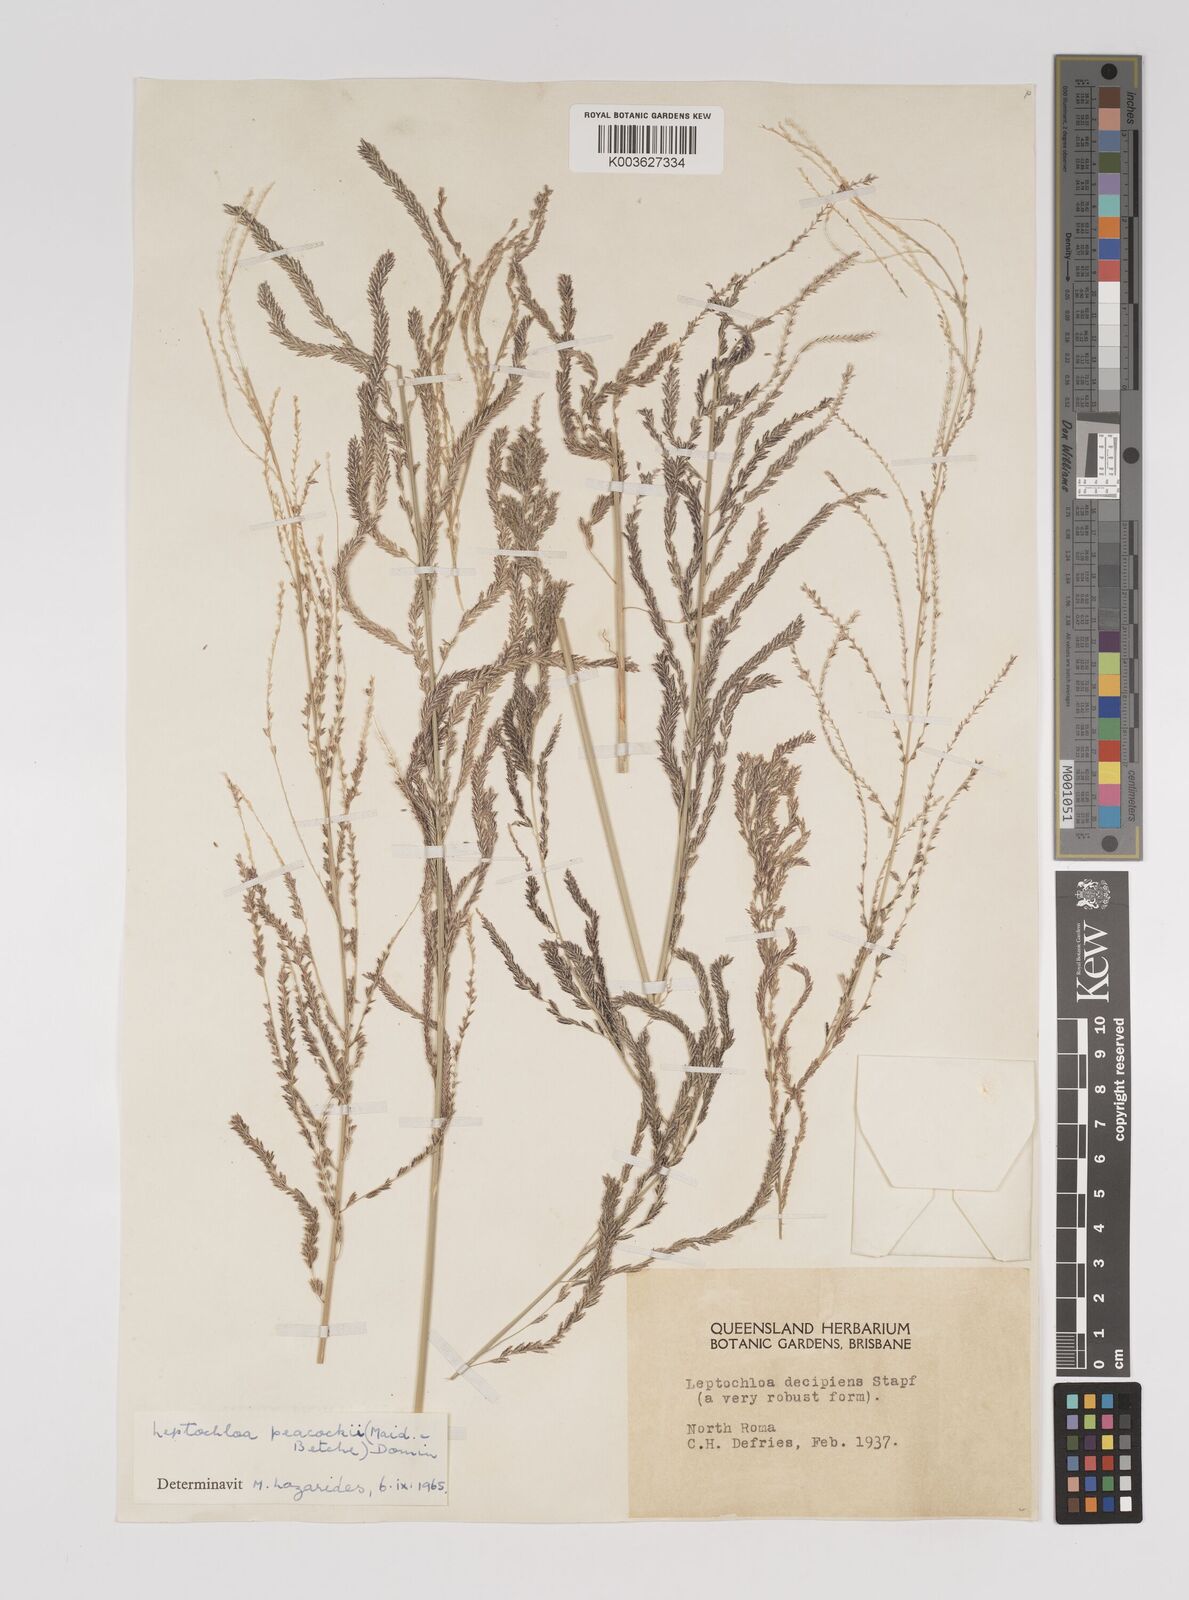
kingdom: Plantae
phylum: Tracheophyta
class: Liliopsida
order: Poales
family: Poaceae
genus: Leptochloa
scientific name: Leptochloa decipiens
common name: Australian sprangletop
